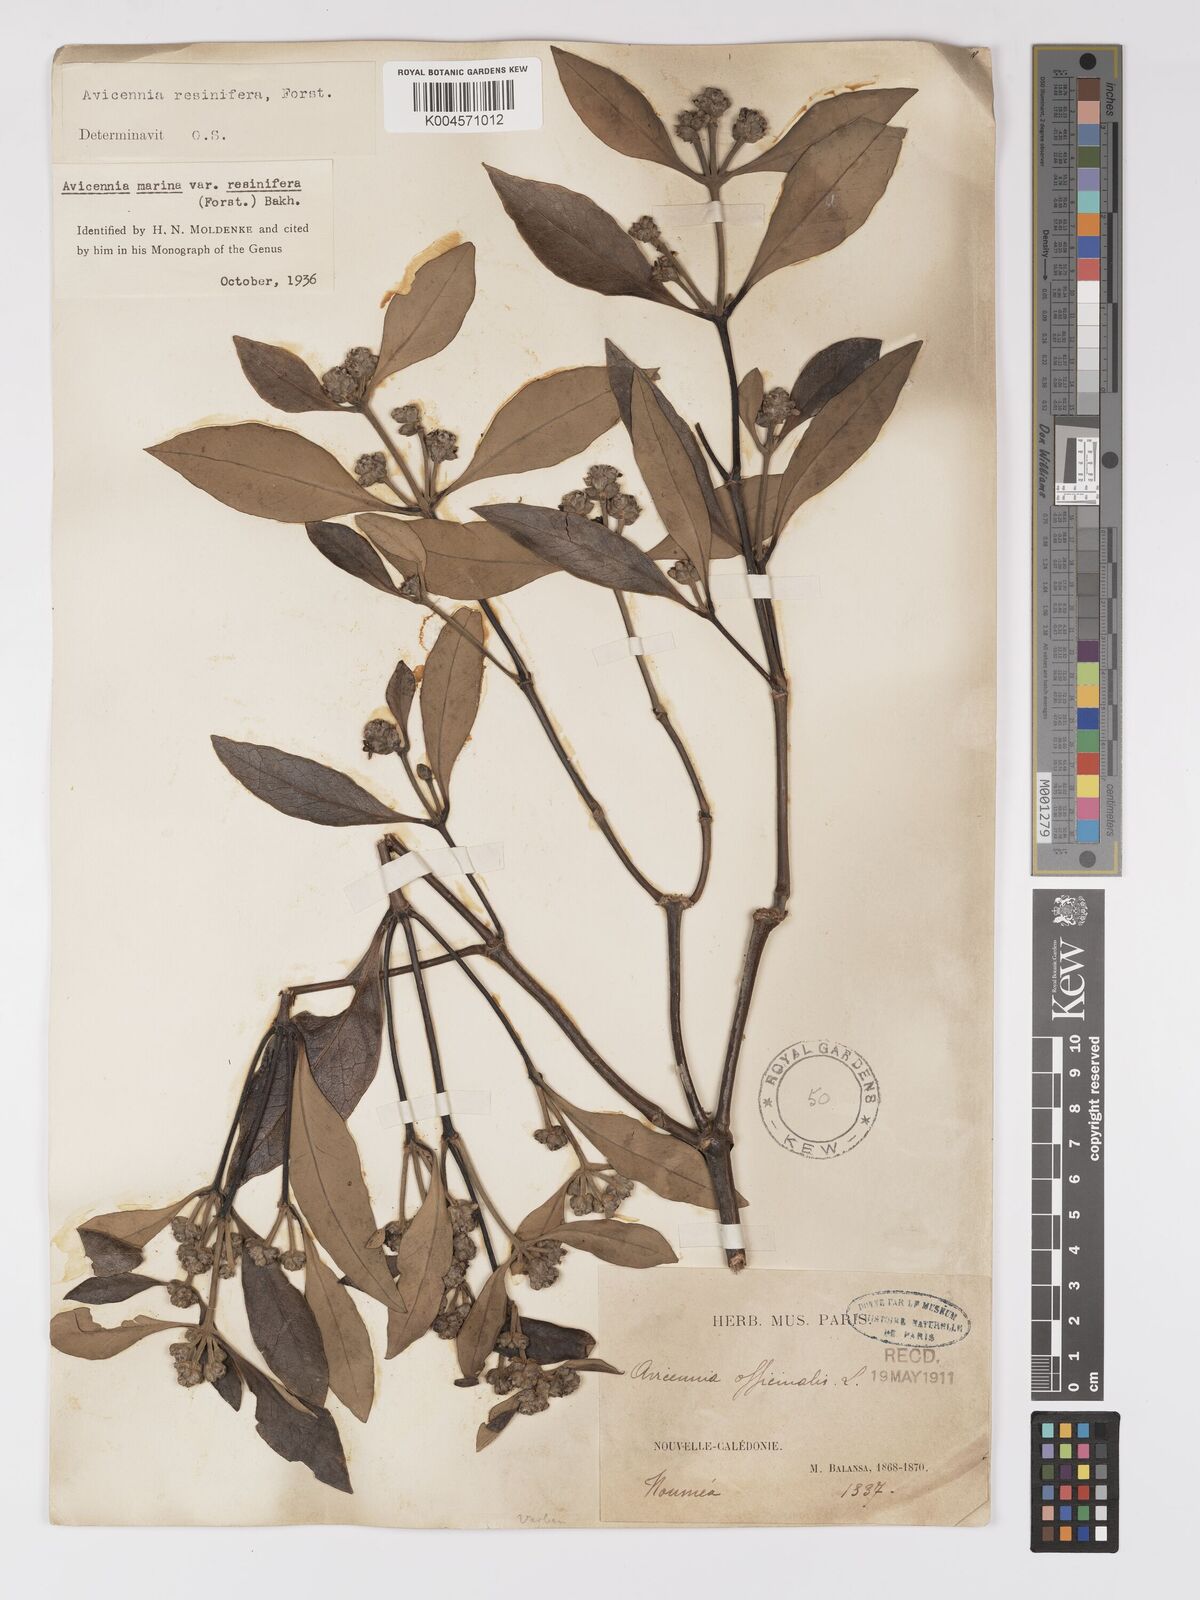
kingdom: Plantae
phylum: Tracheophyta
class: Magnoliopsida
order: Lamiales
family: Acanthaceae
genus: Avicennia
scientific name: Avicennia marina
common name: Gray mangrove
